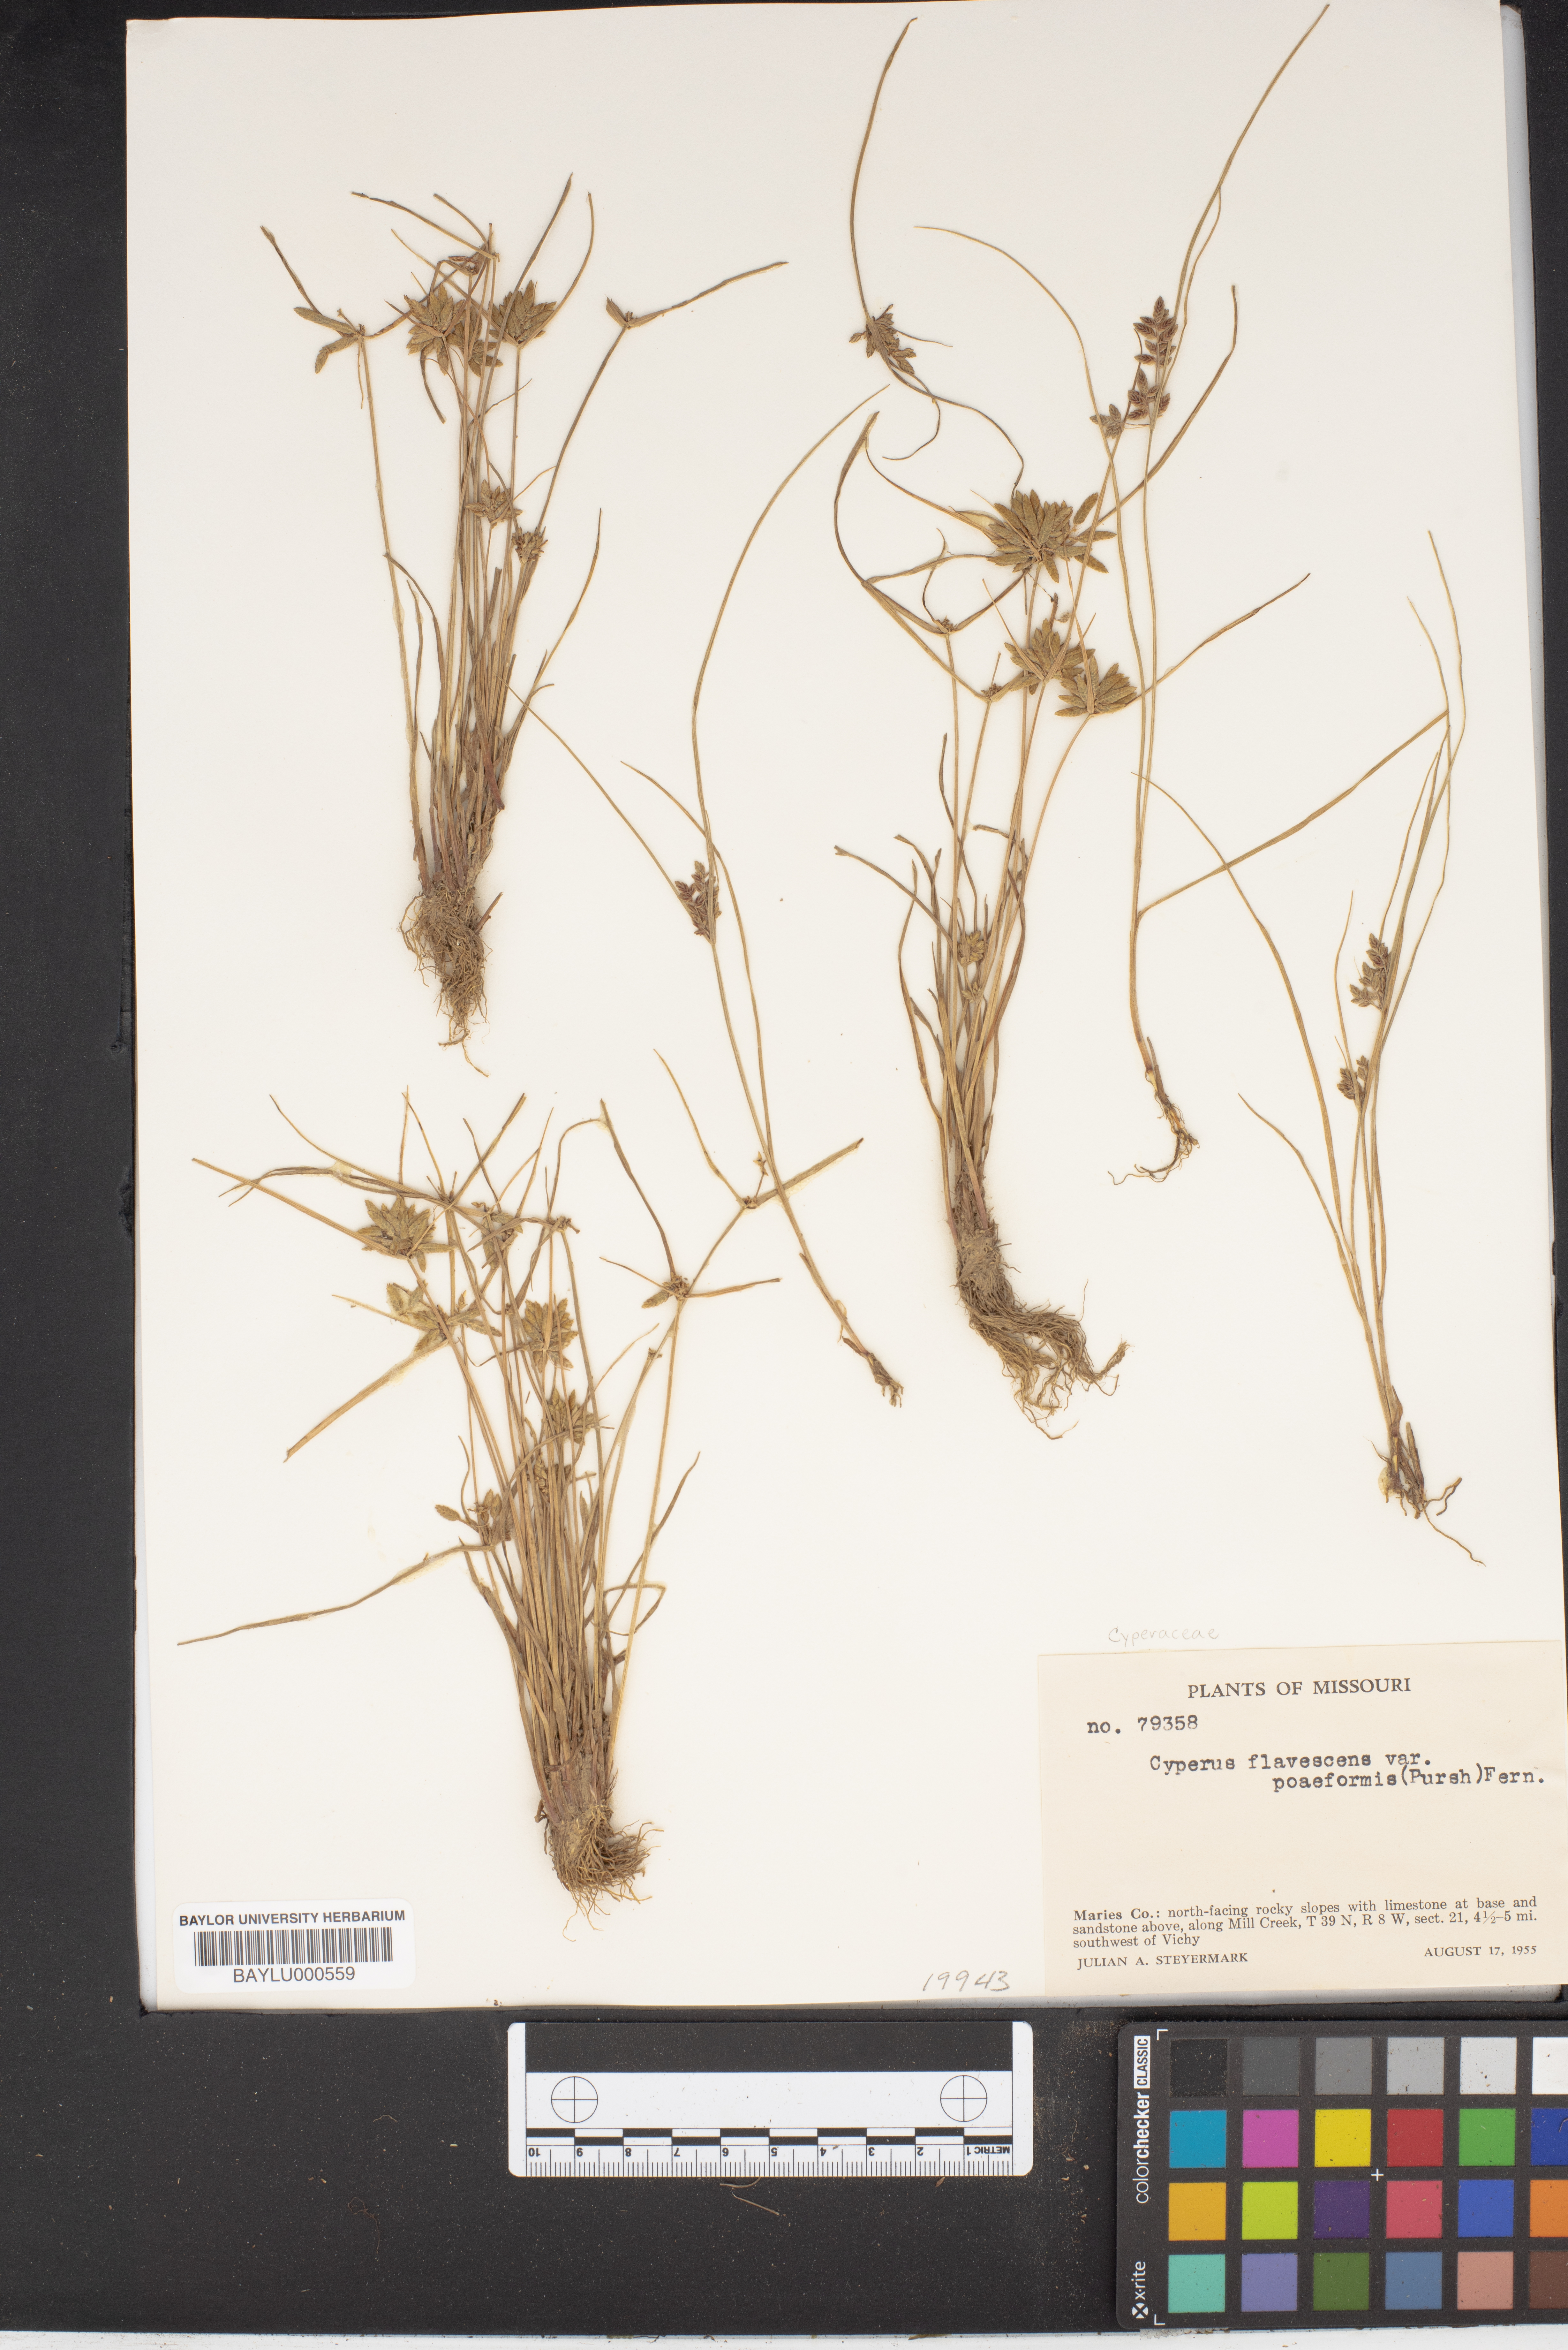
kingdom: Plantae
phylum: Tracheophyta
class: Liliopsida
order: Poales
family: Cyperaceae
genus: Cyperus
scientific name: Cyperus flavescens
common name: Yellow galingale
